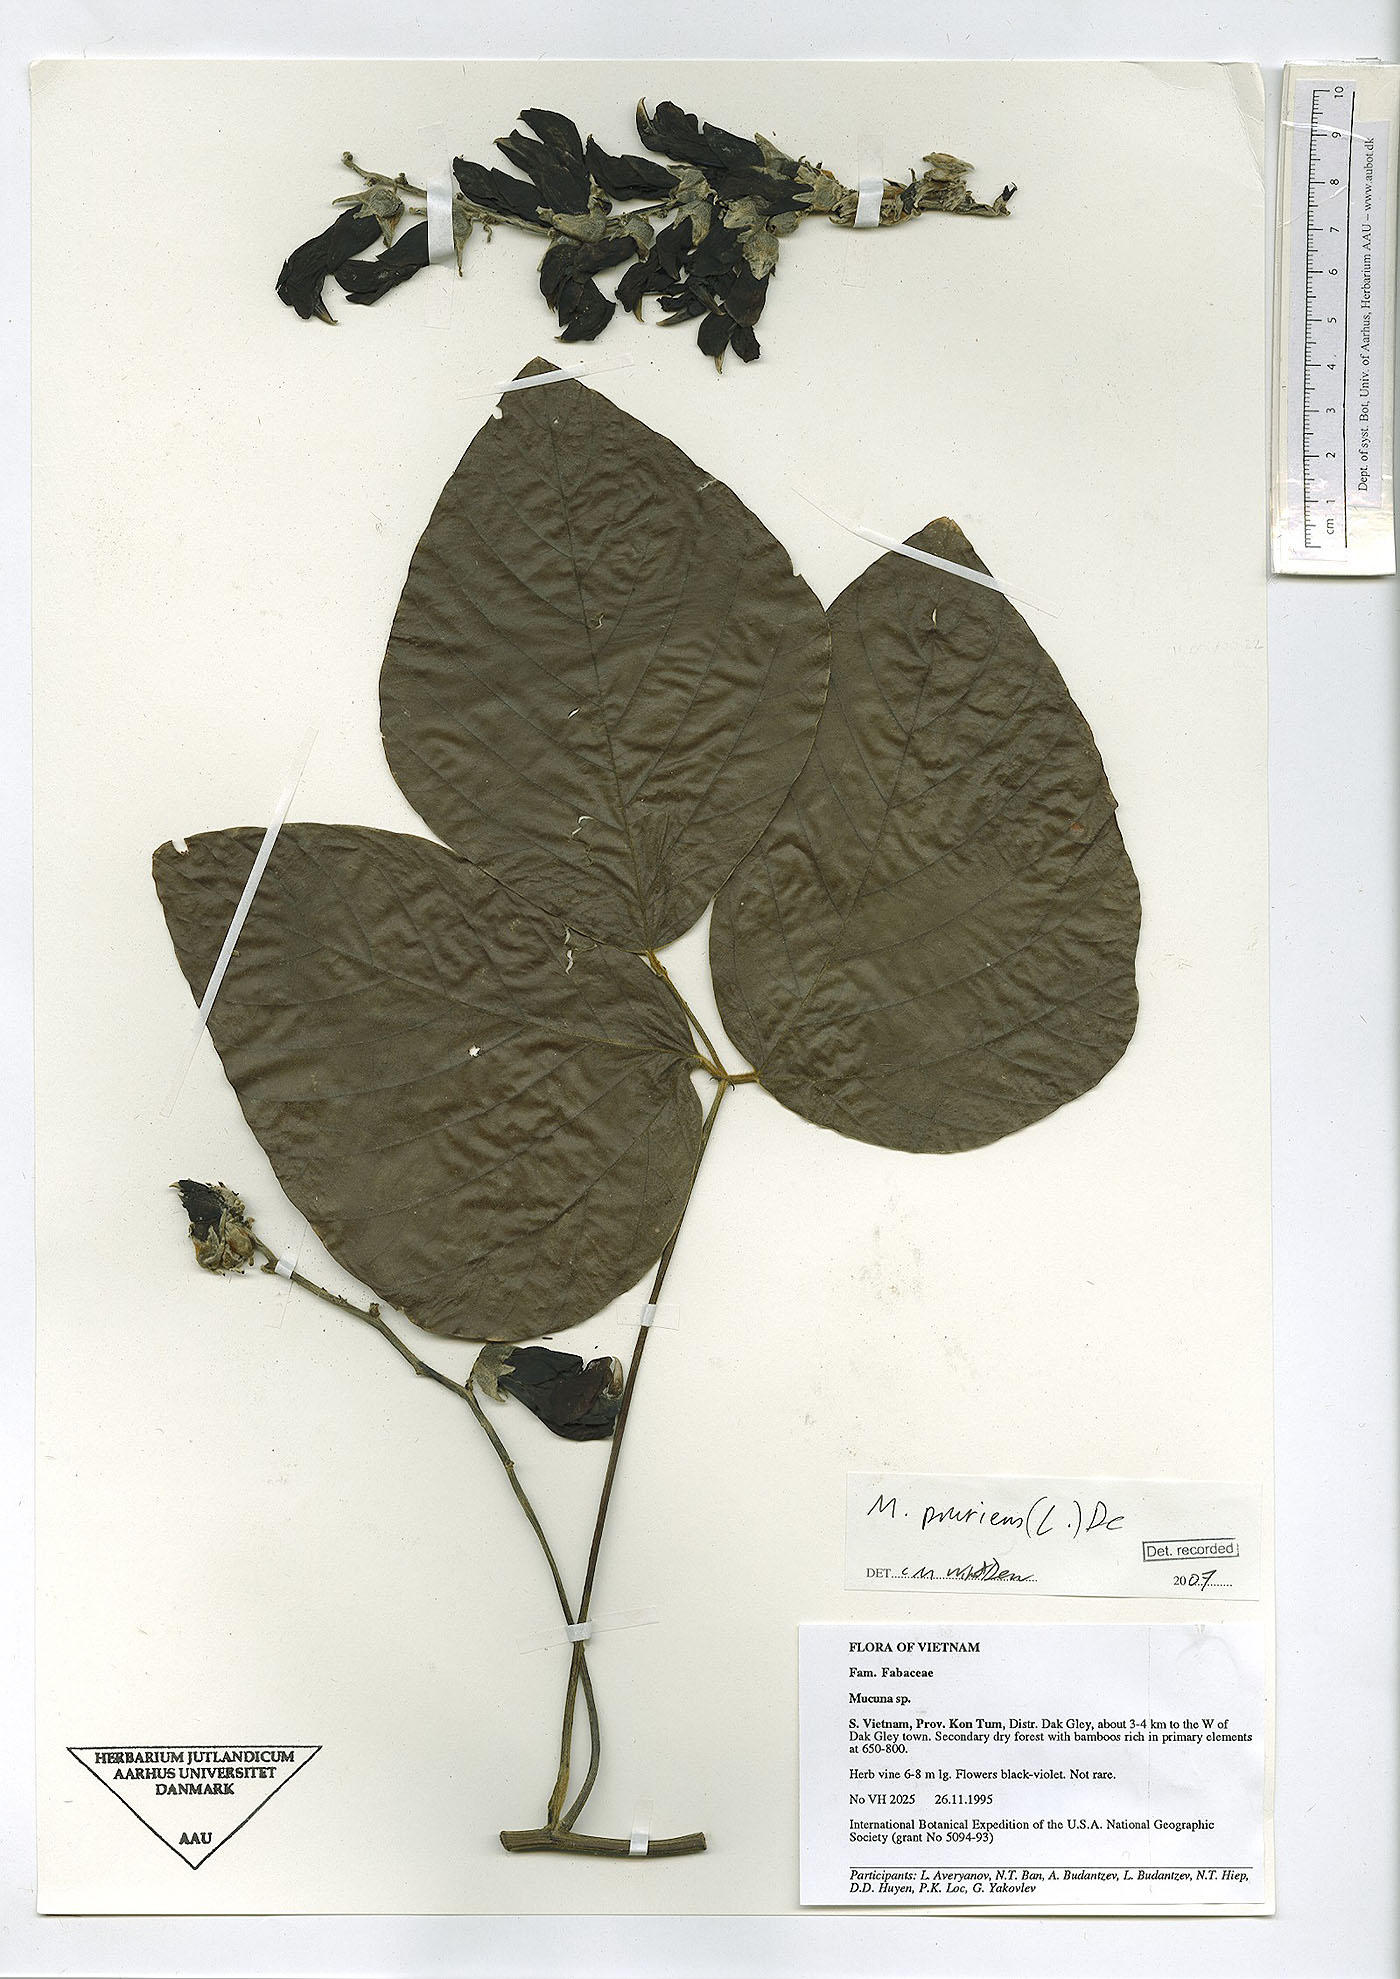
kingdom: Plantae
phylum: Tracheophyta
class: Magnoliopsida
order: Fabales
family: Fabaceae
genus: Mucuna
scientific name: Mucuna pruriens
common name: Cow-itch
